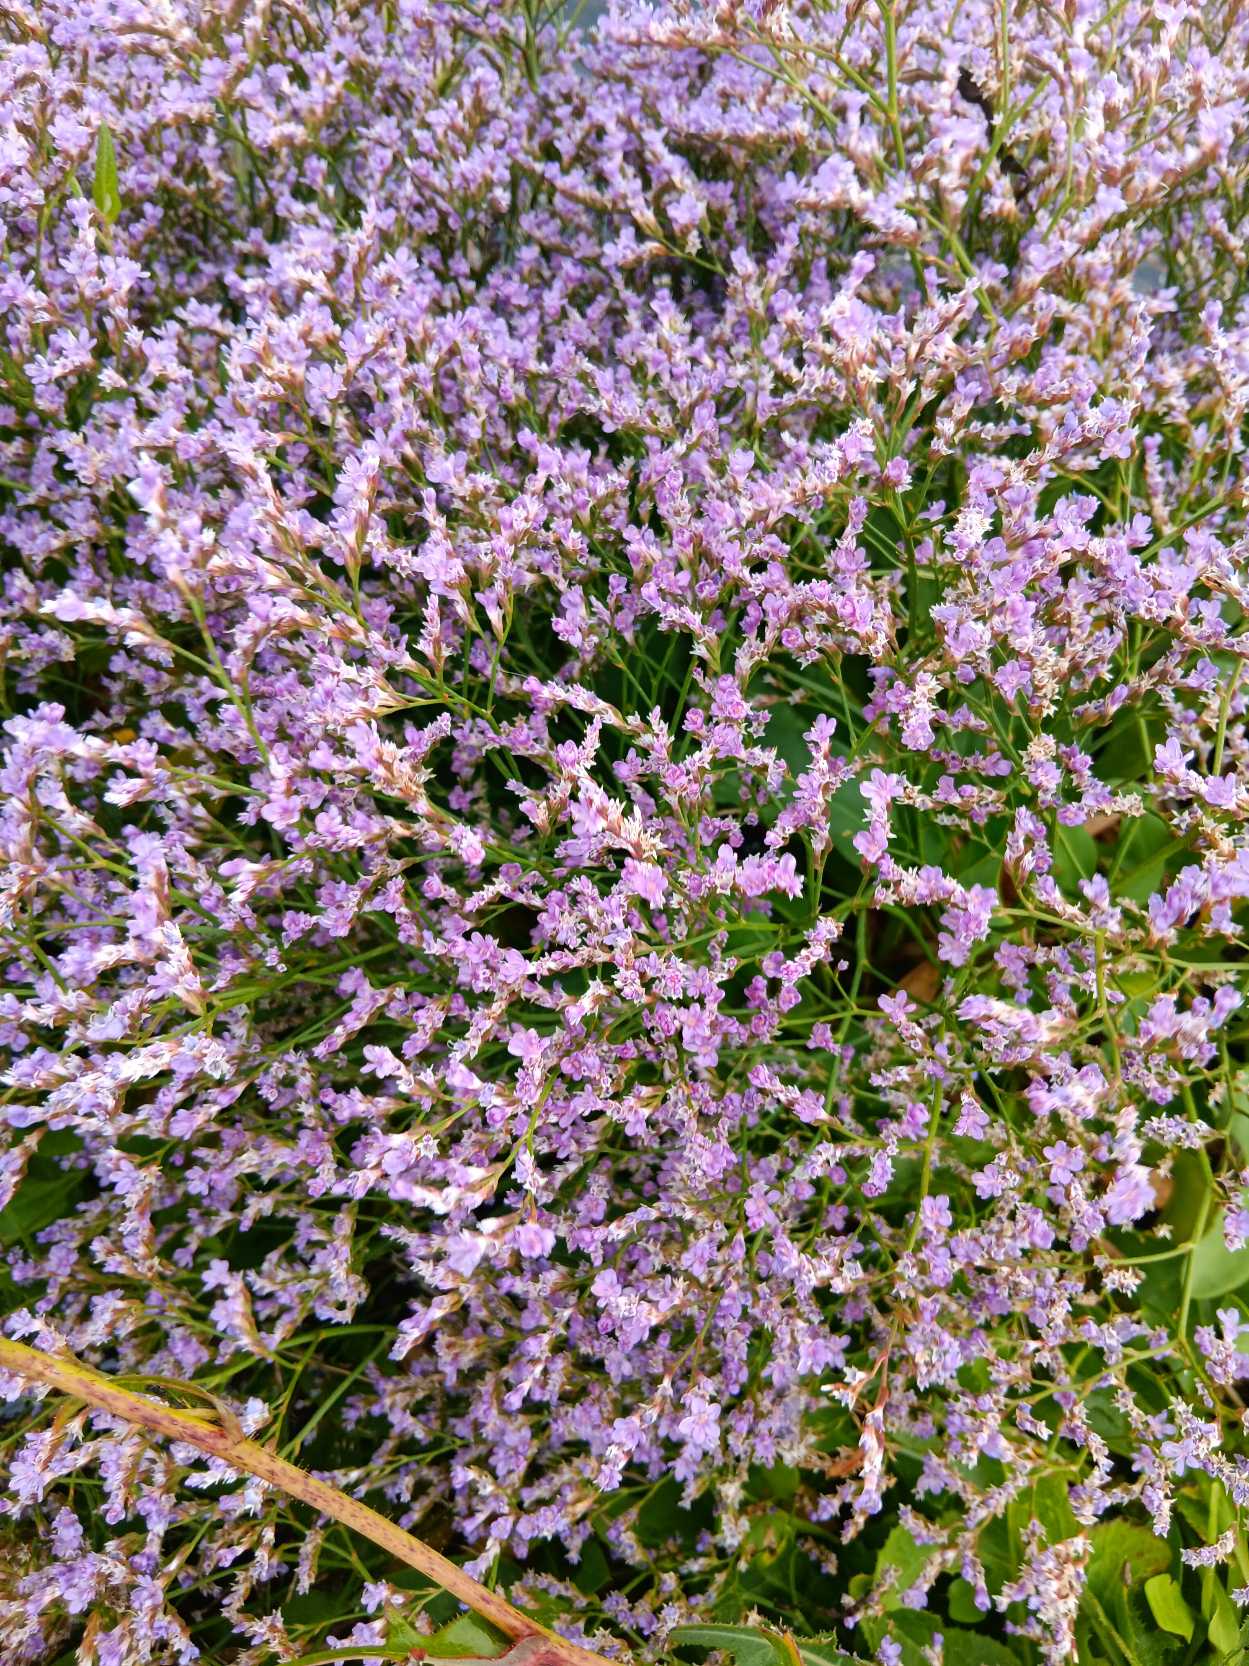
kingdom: Plantae
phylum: Tracheophyta
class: Magnoliopsida
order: Caryophyllales
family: Plumbaginaceae
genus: Limonium
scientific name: Limonium vulgare
